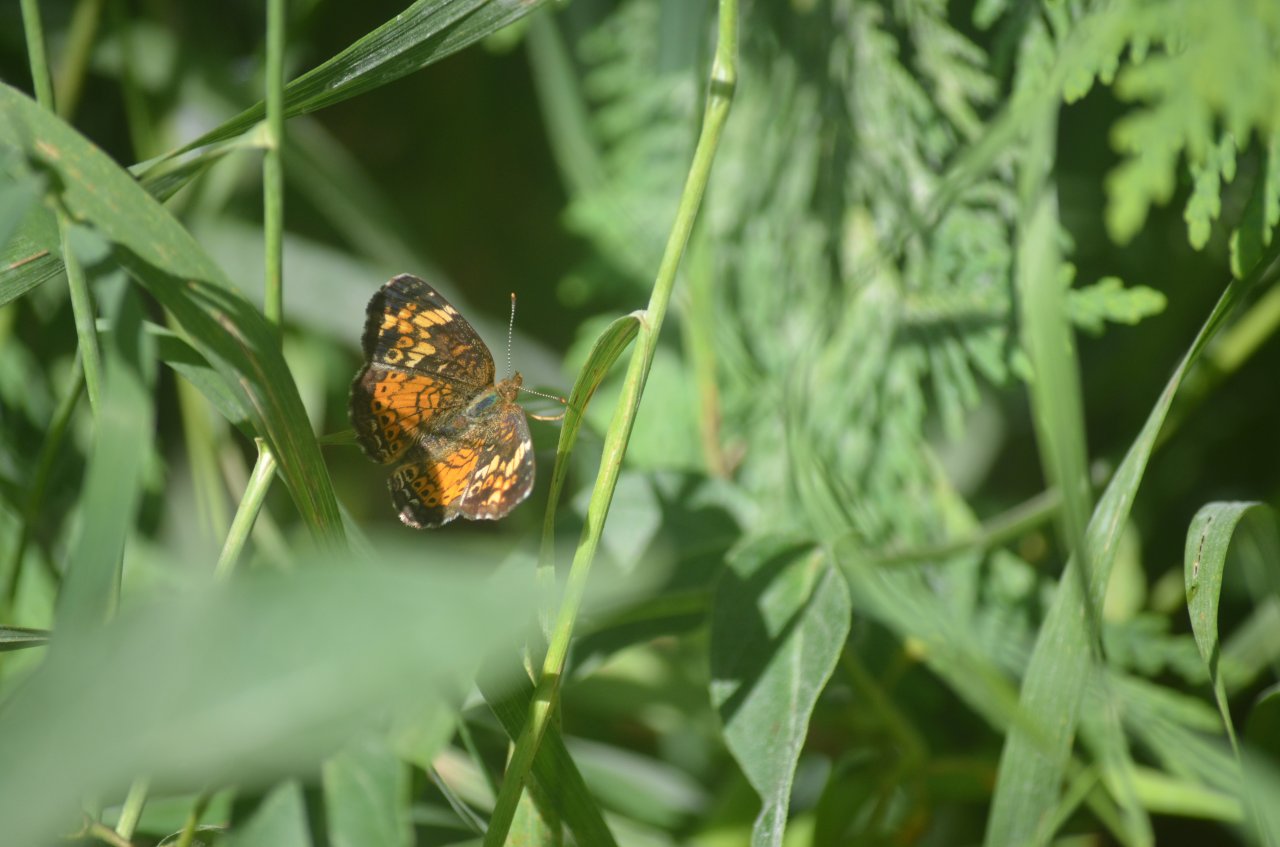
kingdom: Animalia
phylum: Arthropoda
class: Insecta
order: Lepidoptera
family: Nymphalidae
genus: Phyciodes
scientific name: Phyciodes tharos
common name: Northern Crescent
